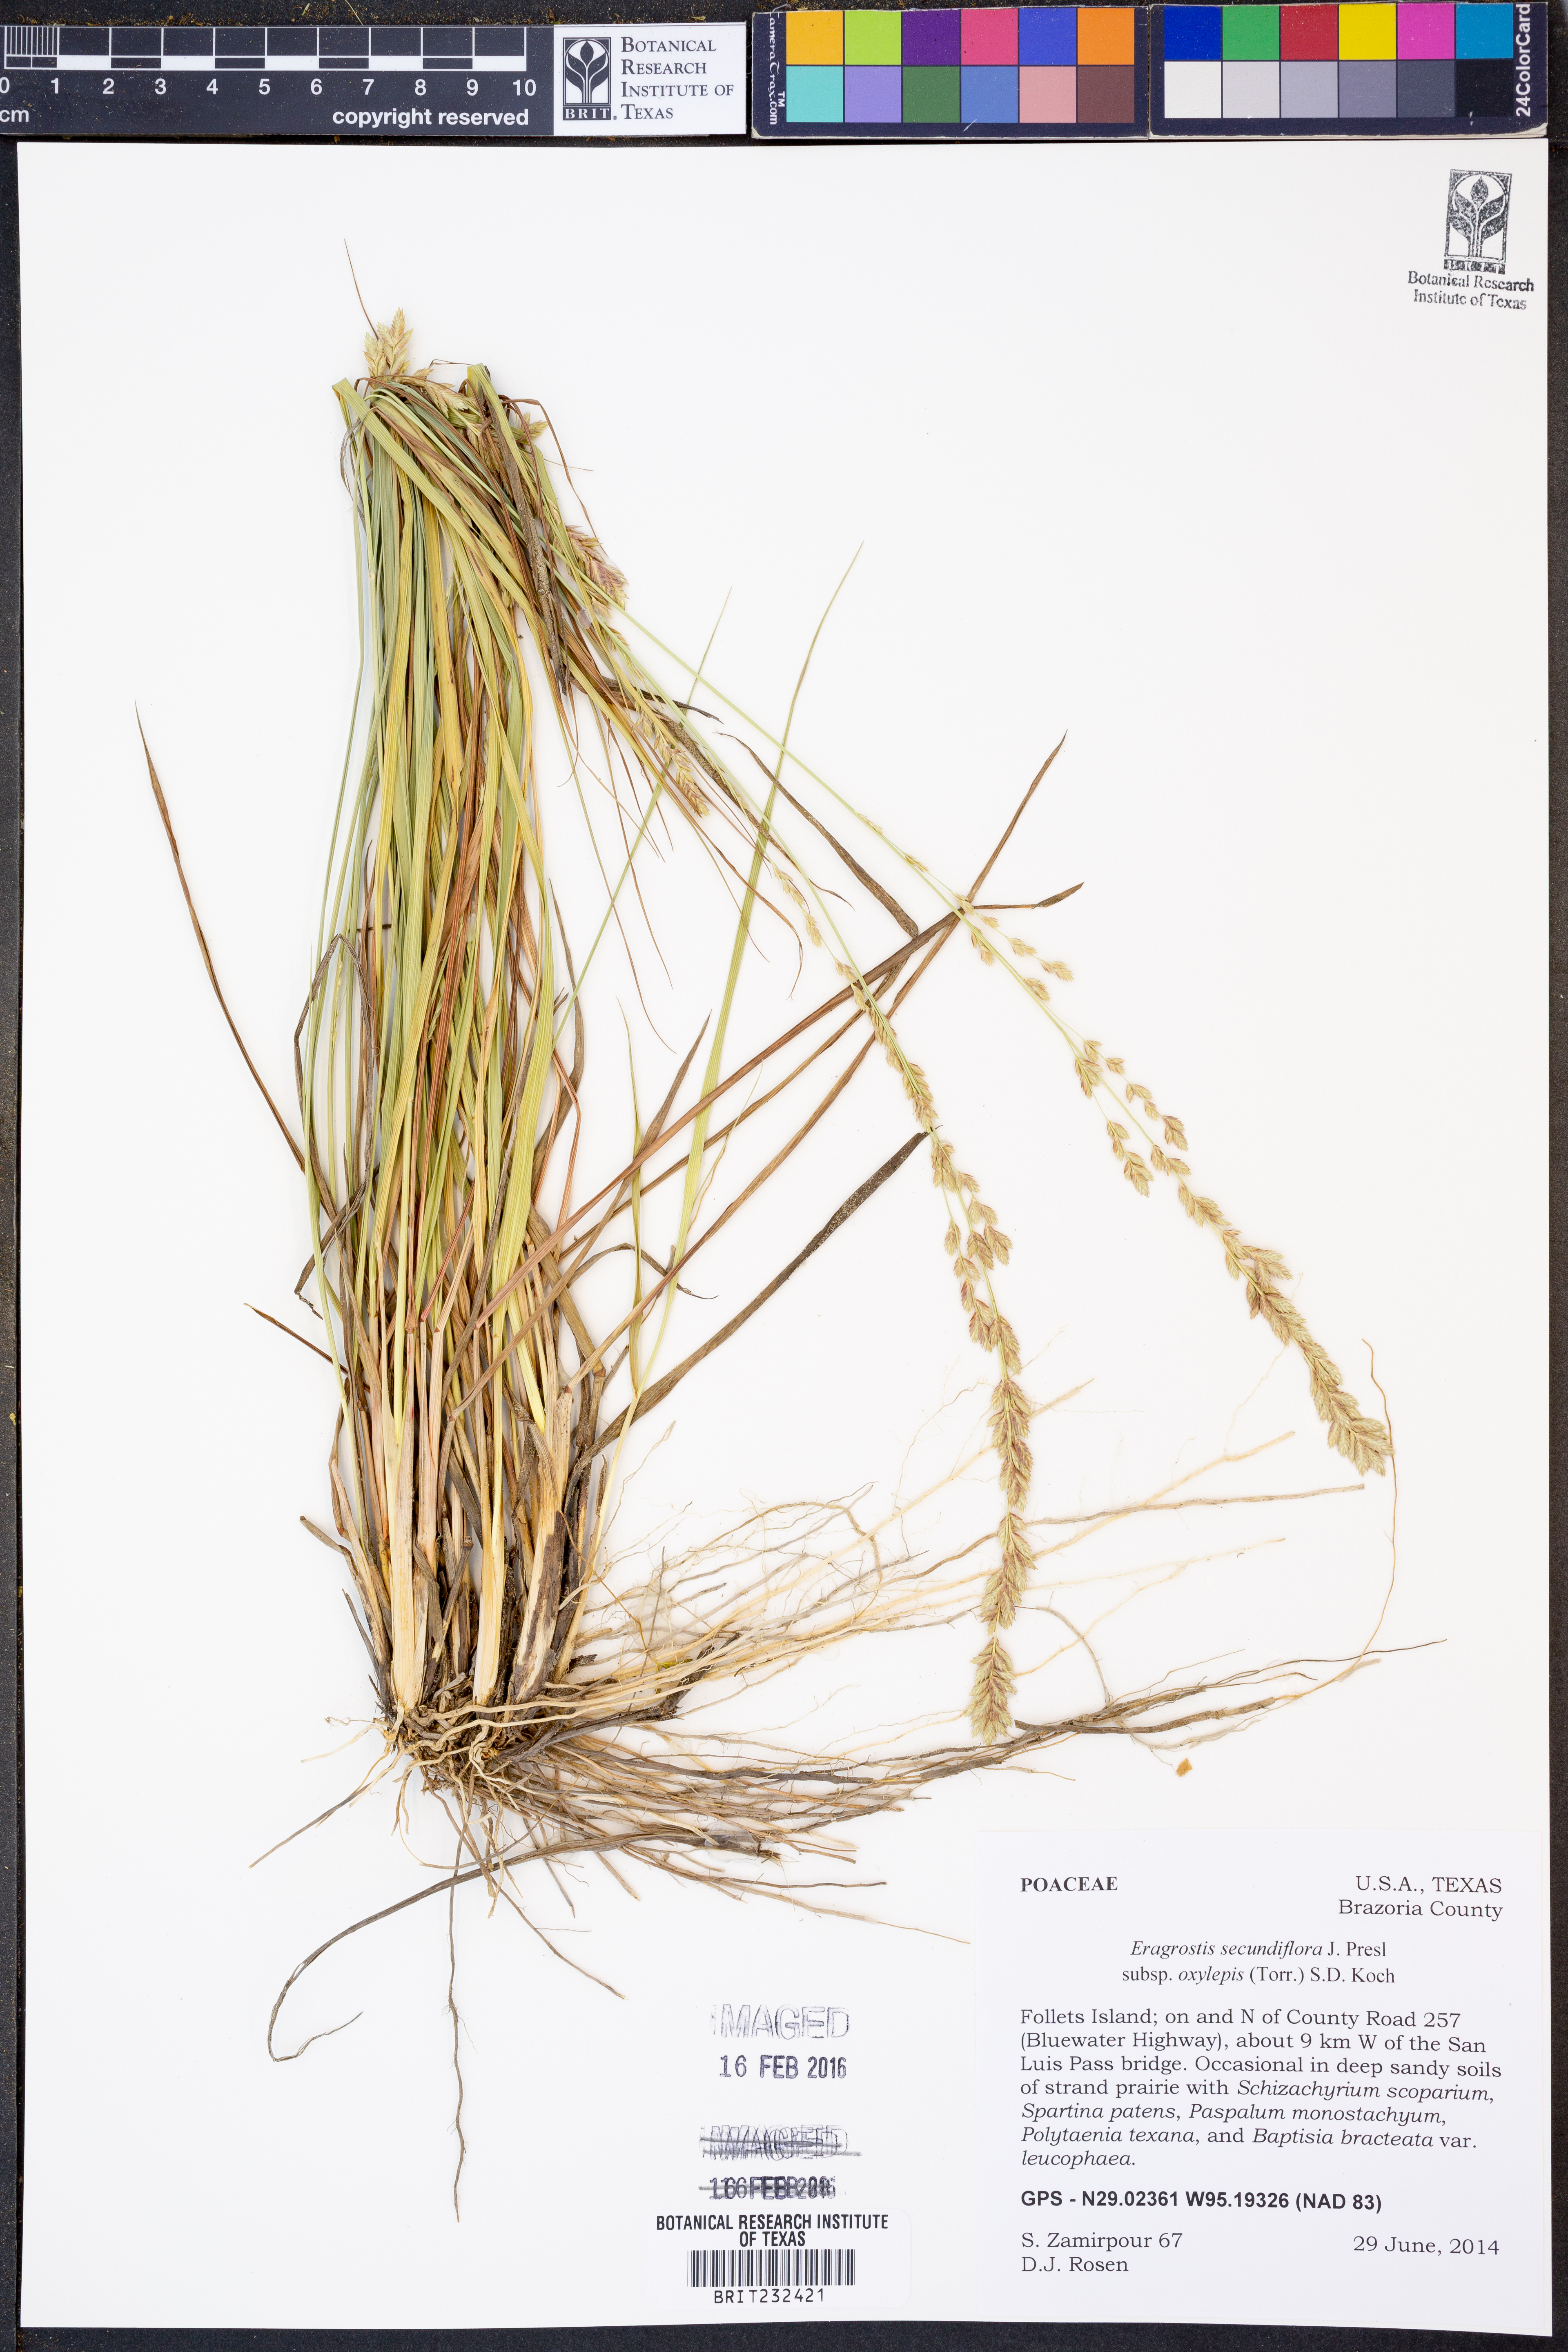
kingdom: Plantae
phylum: Tracheophyta
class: Liliopsida
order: Poales
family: Poaceae
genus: Eragrostis
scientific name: Eragrostis secundiflora
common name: Red love grass
